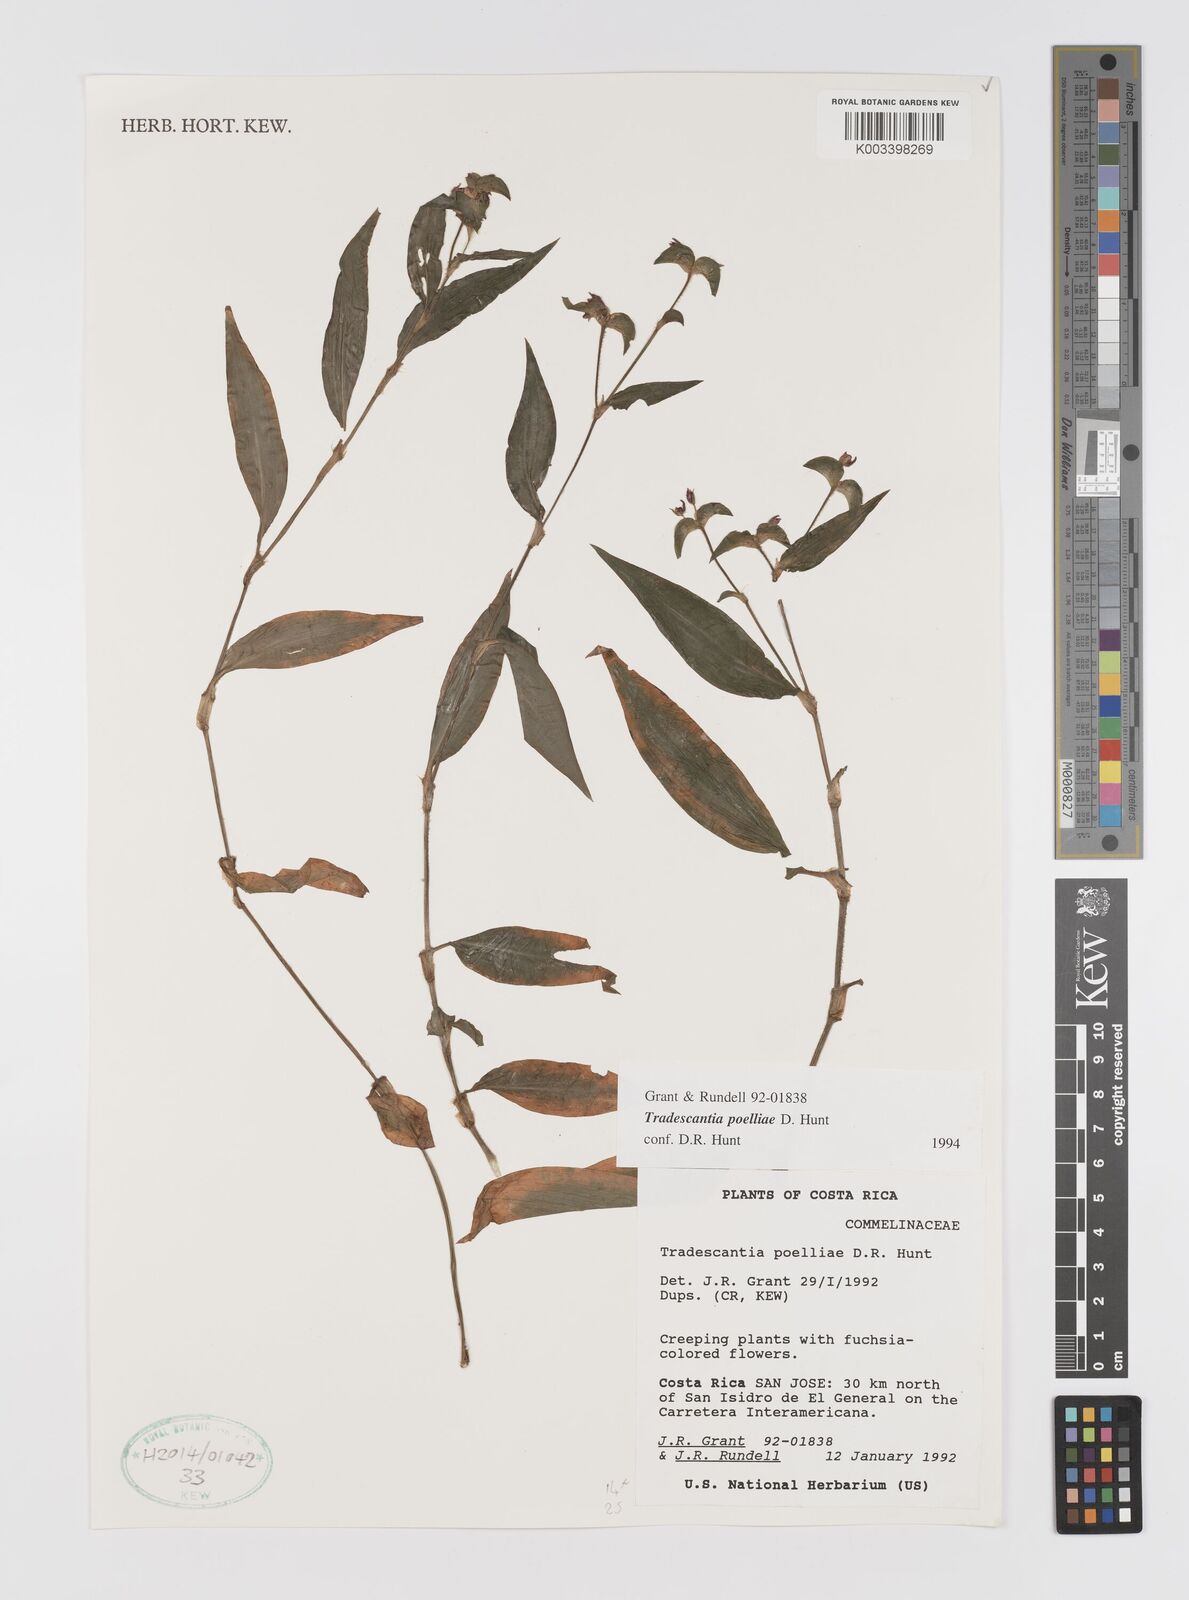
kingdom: Plantae
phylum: Tracheophyta
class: Liliopsida
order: Commelinales
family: Commelinaceae
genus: Tradescantia
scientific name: Tradescantia poelliae
